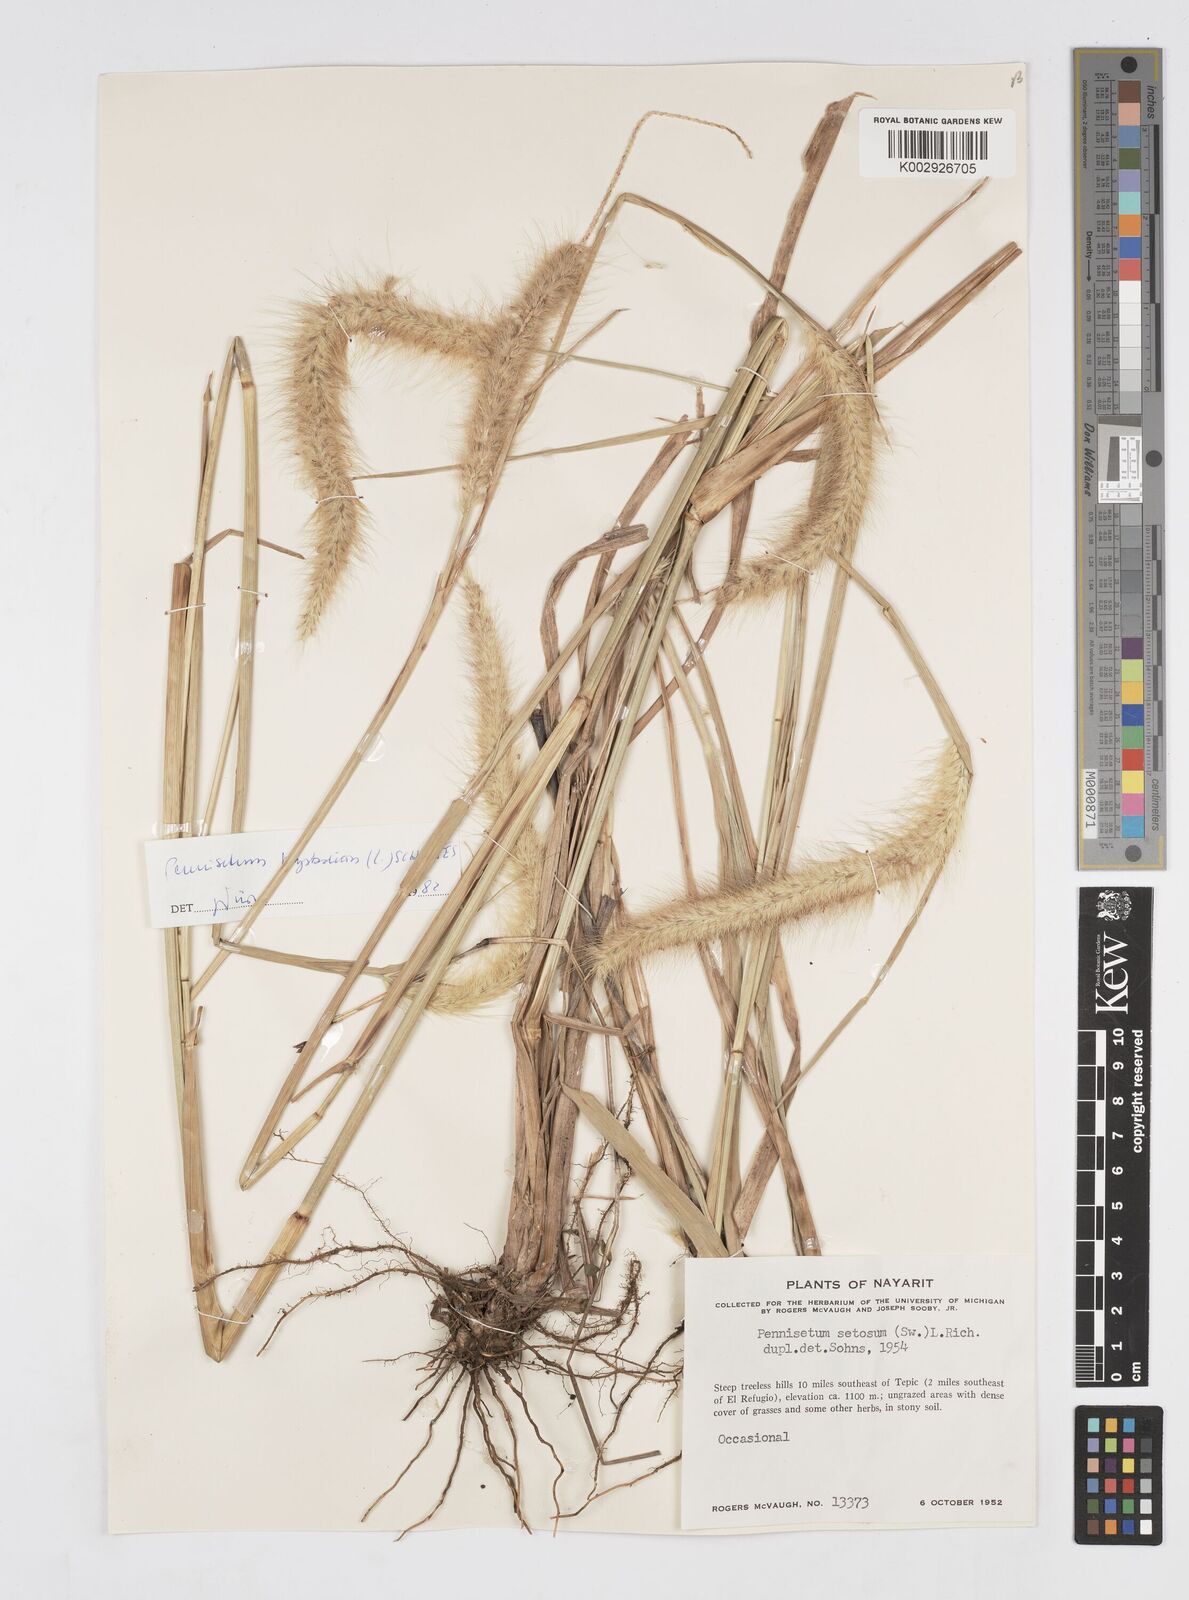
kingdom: Plantae
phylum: Tracheophyta
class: Liliopsida
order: Poales
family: Poaceae
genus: Cenchrus
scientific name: Cenchrus setosus
